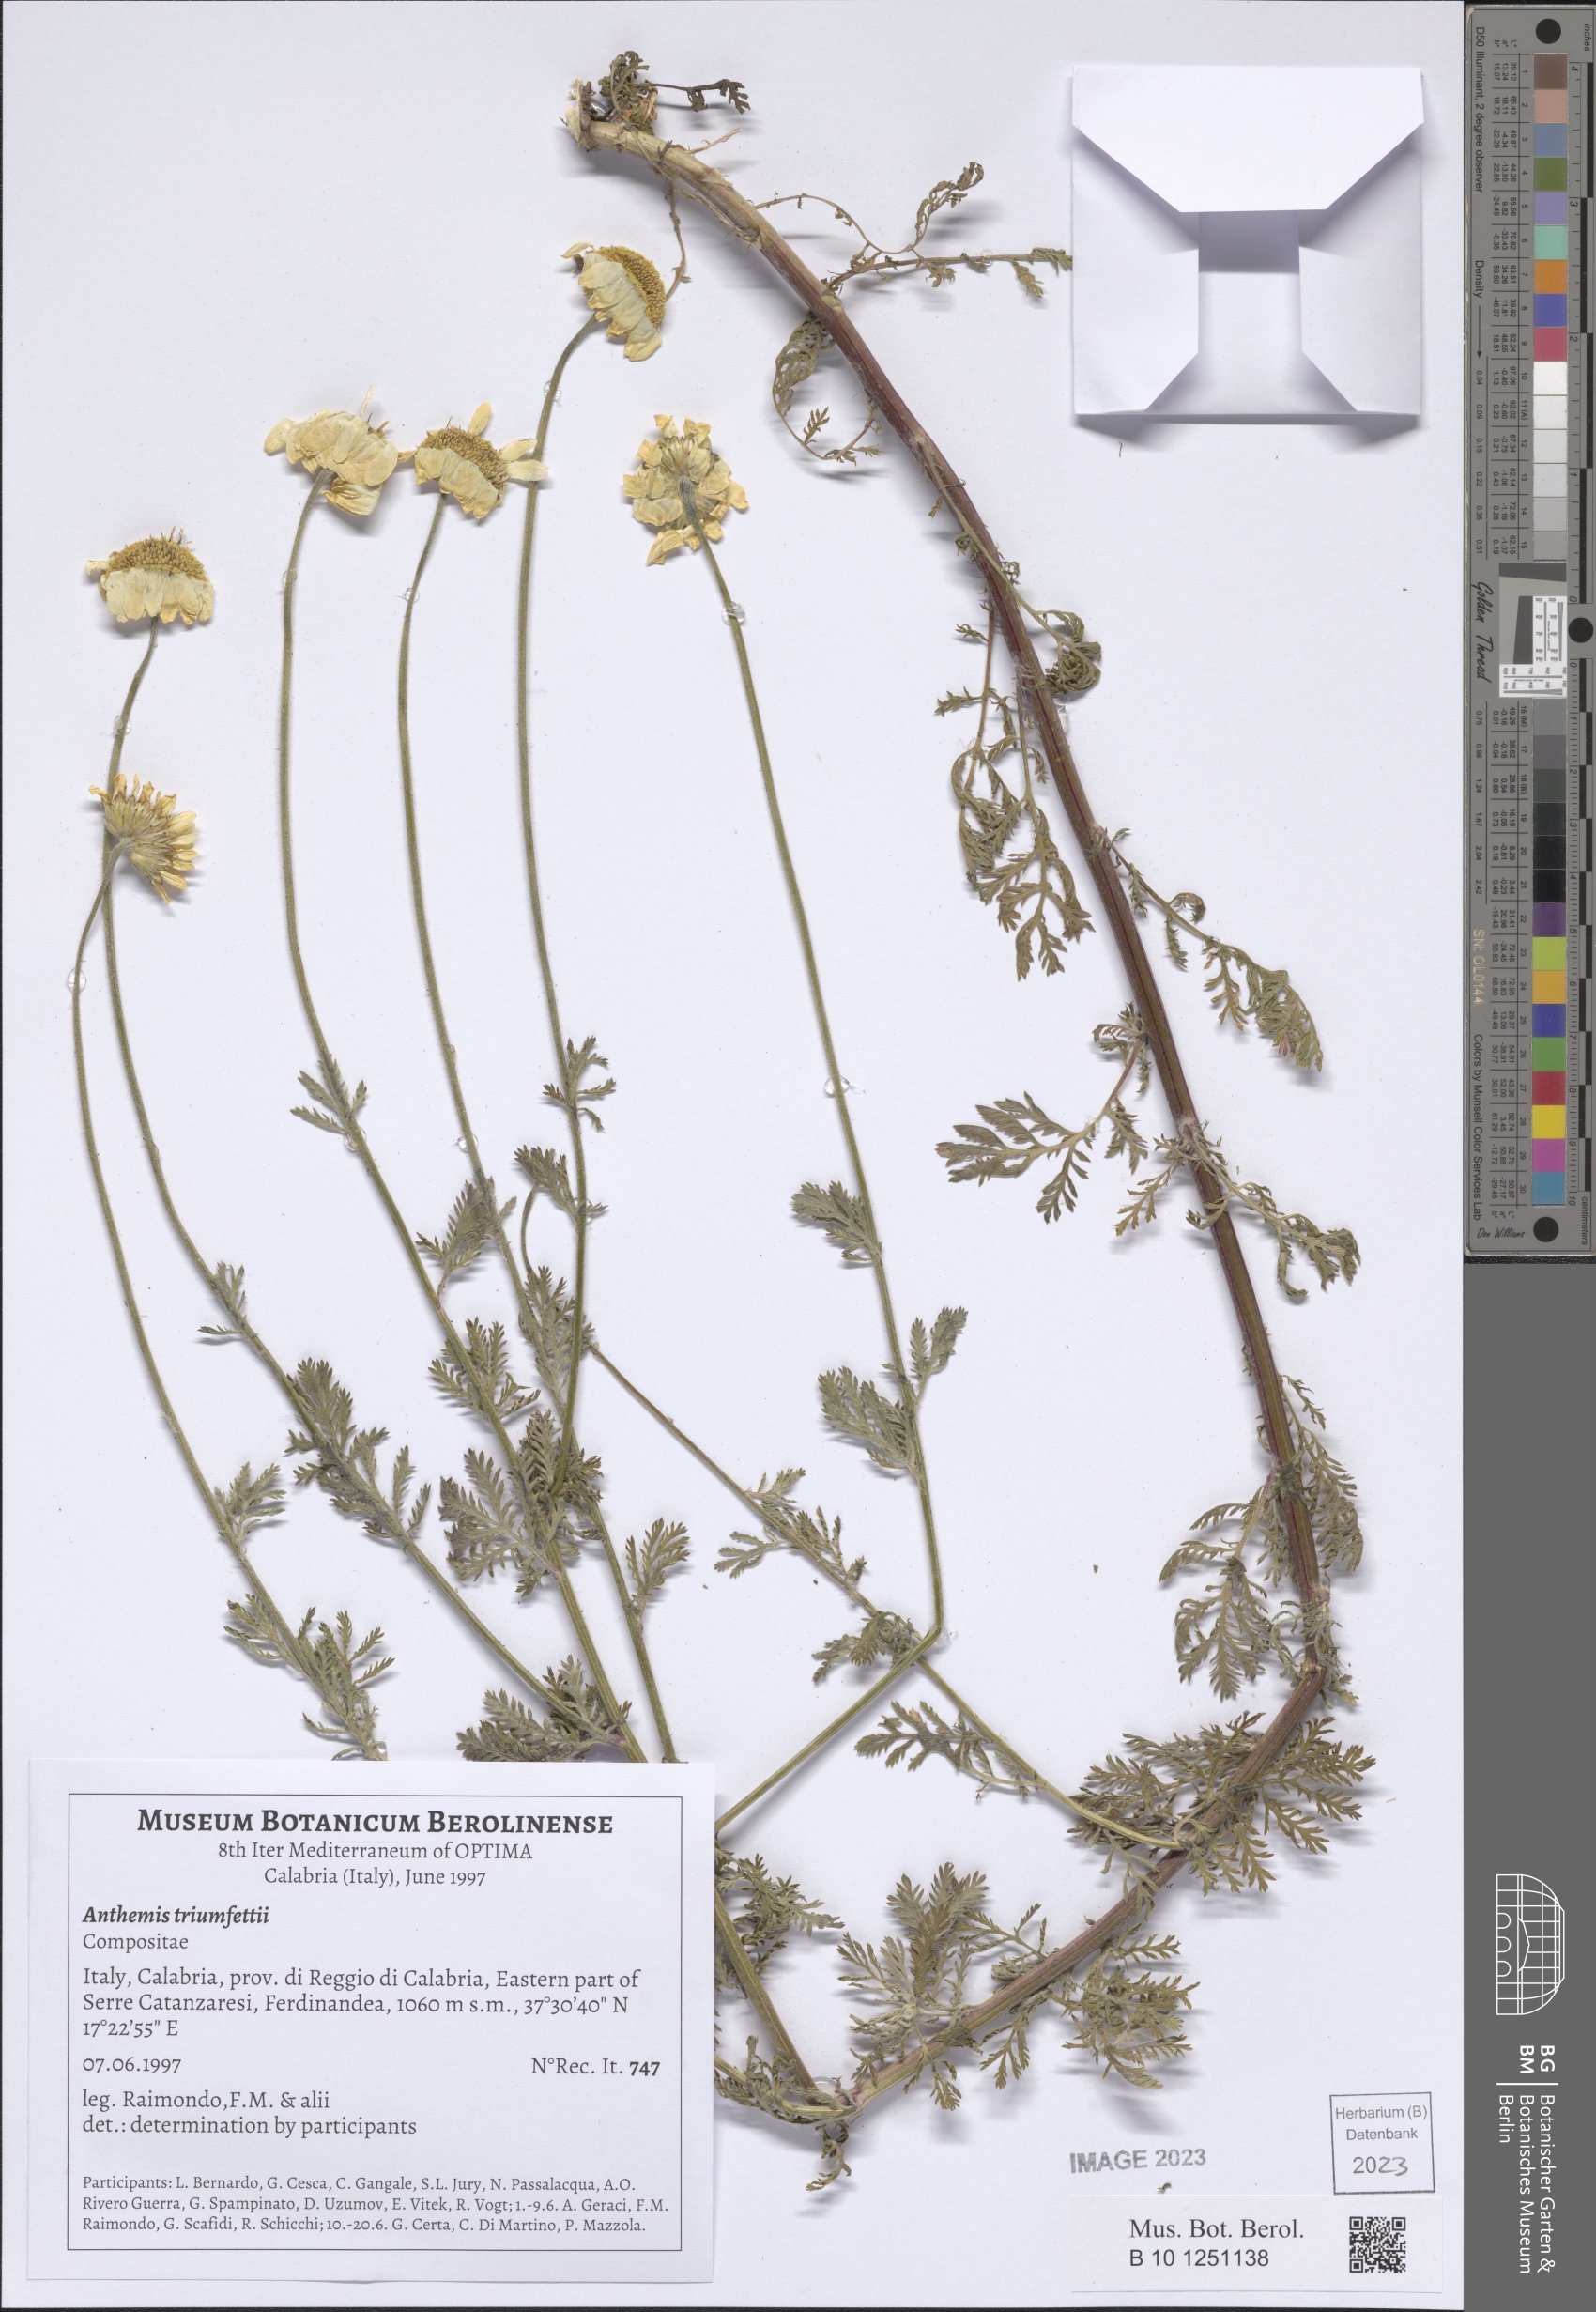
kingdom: Plantae
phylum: Tracheophyta
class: Magnoliopsida
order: Asterales
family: Asteraceae
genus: Cota
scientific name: Cota triumfetti
